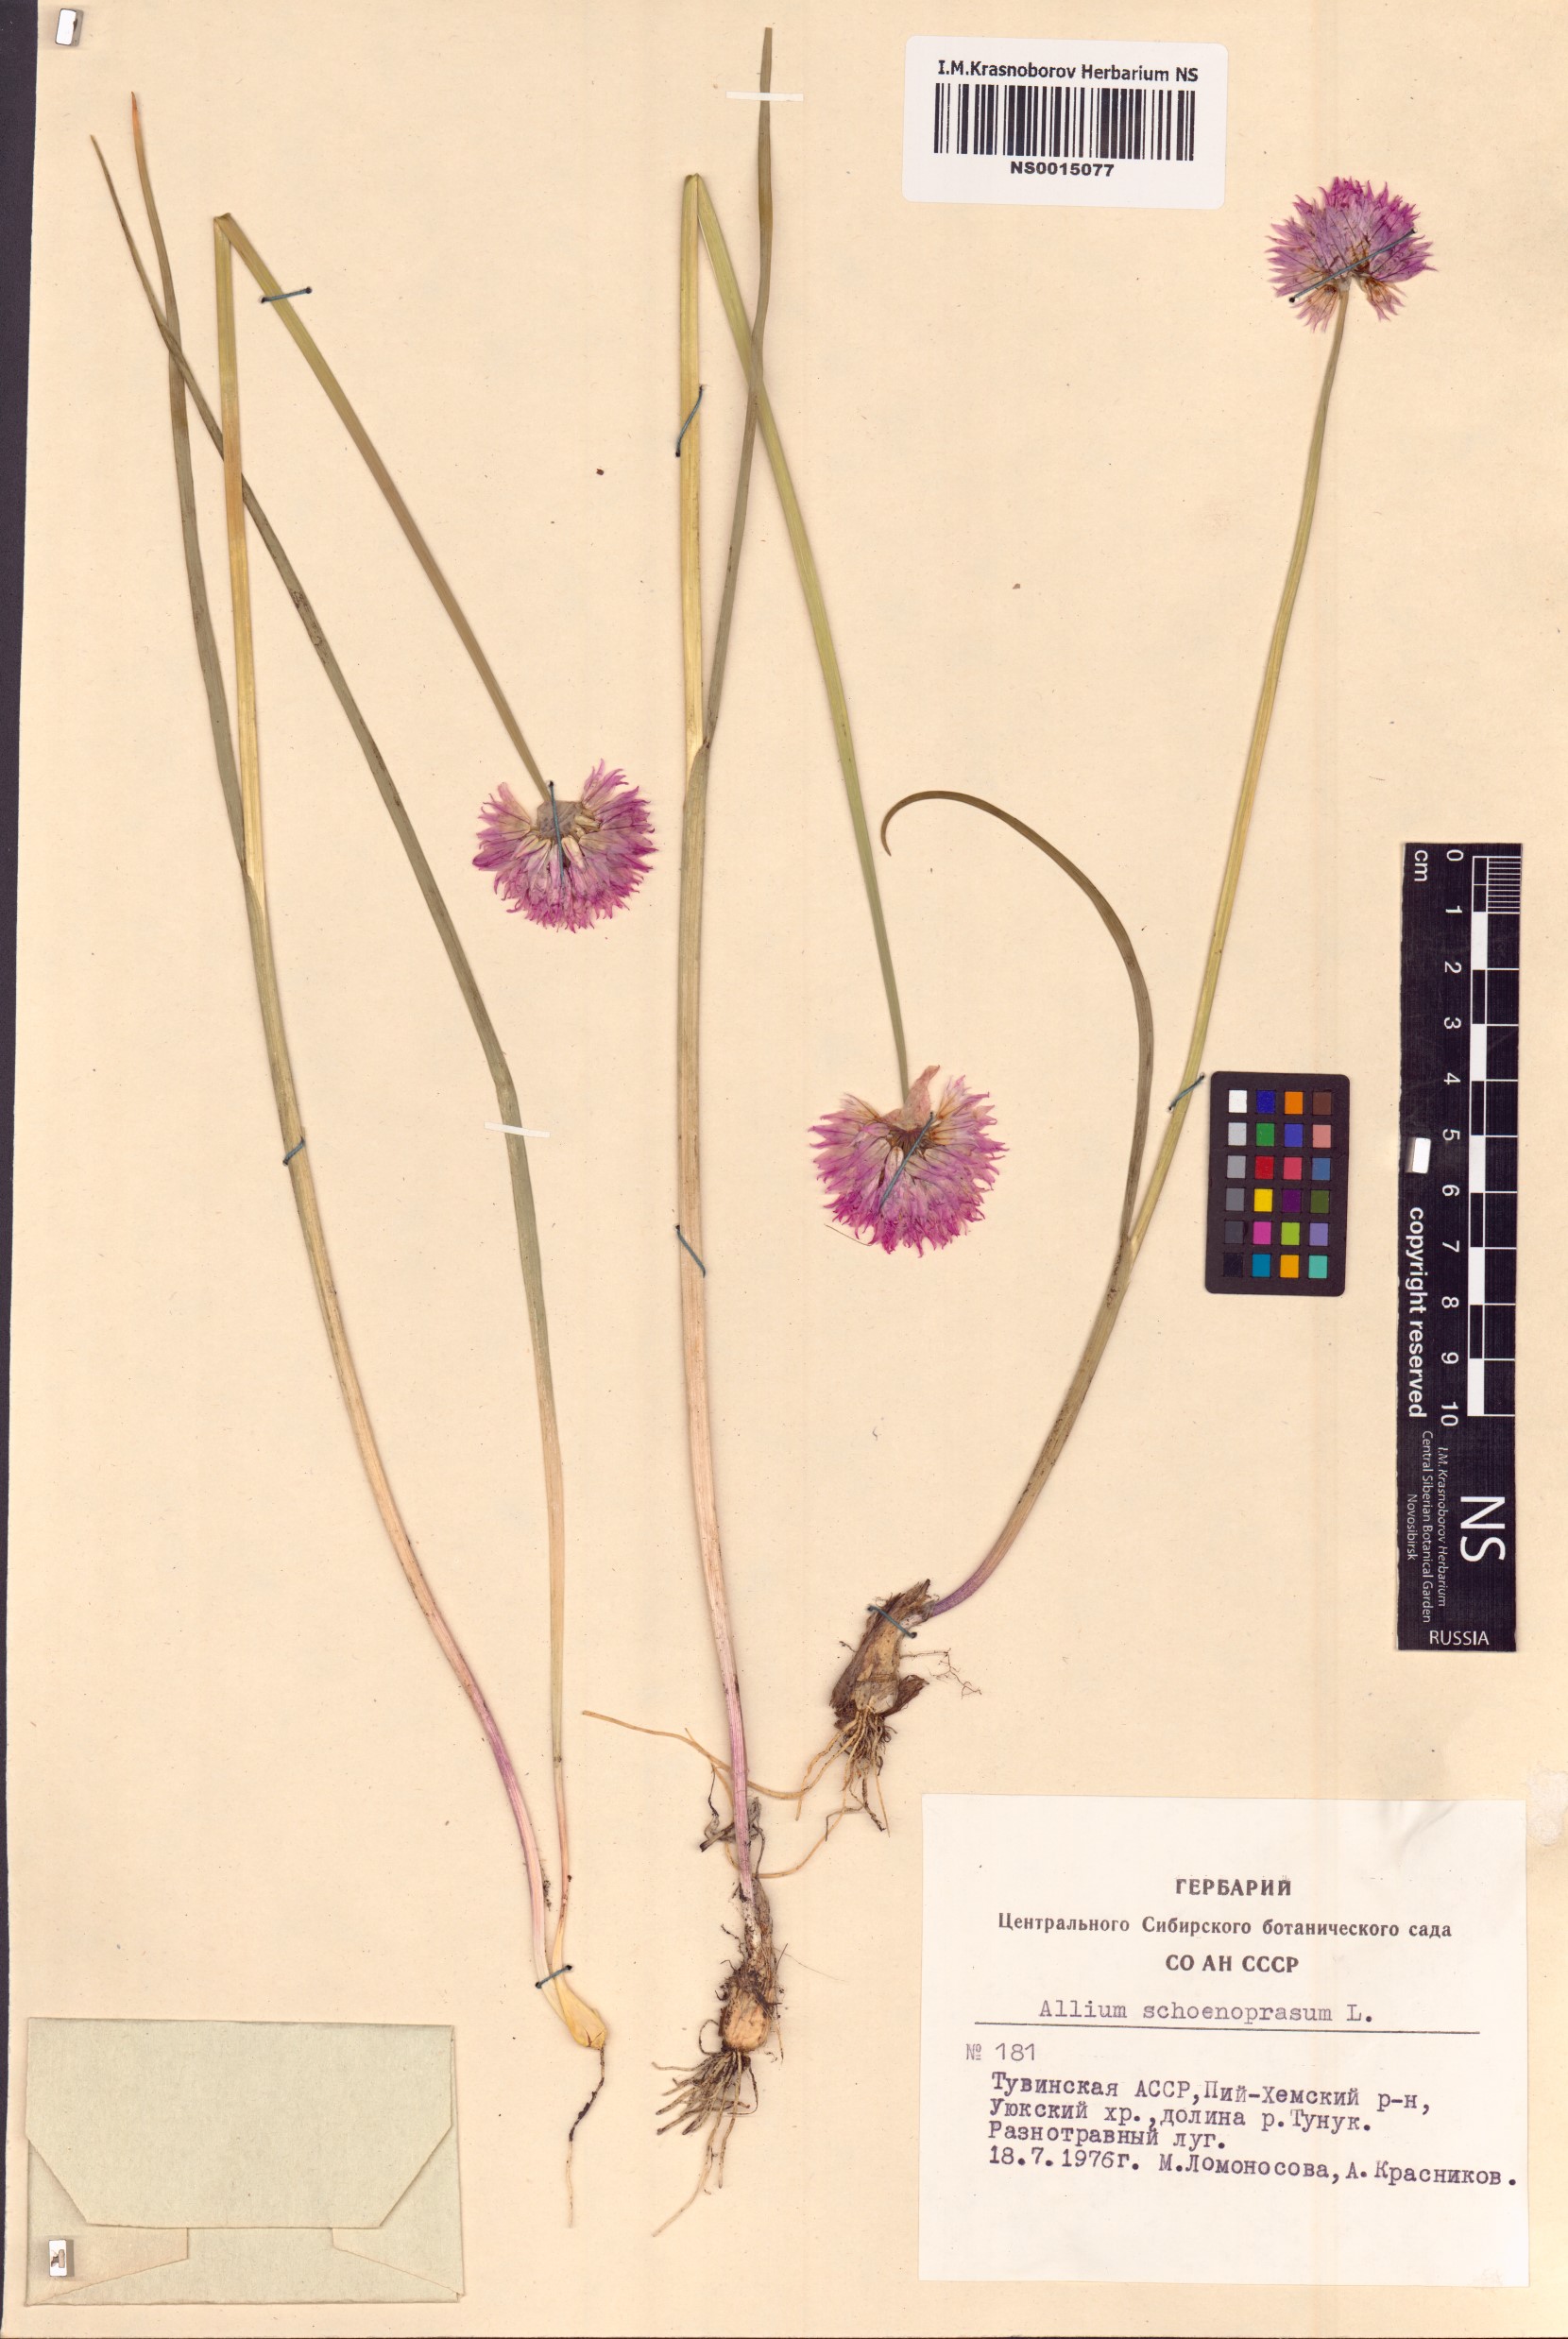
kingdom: Plantae
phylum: Tracheophyta
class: Liliopsida
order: Asparagales
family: Amaryllidaceae
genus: Allium
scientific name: Allium schoenoprasum
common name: Chives
